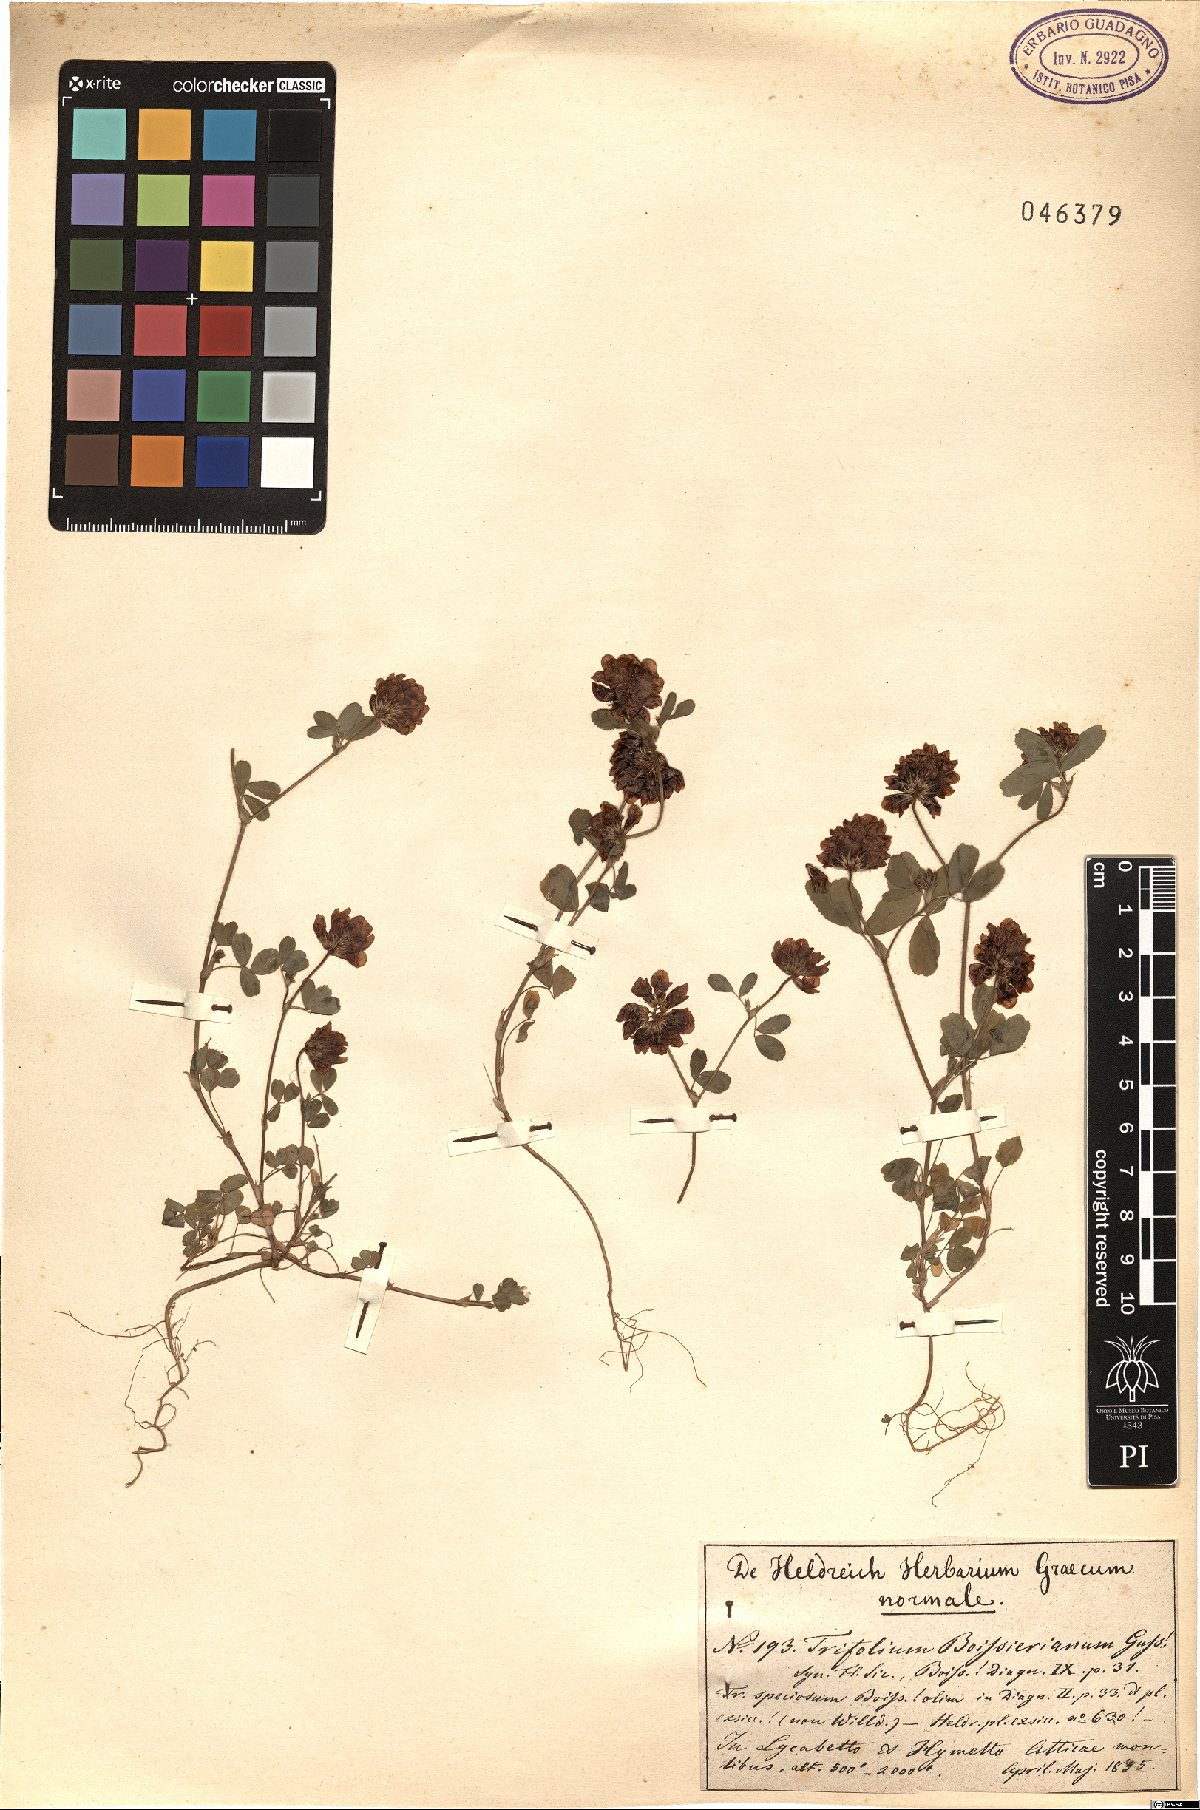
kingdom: Plantae
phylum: Tracheophyta
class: Magnoliopsida
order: Fabales
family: Fabaceae
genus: Trifolium
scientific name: Trifolium boissieri
